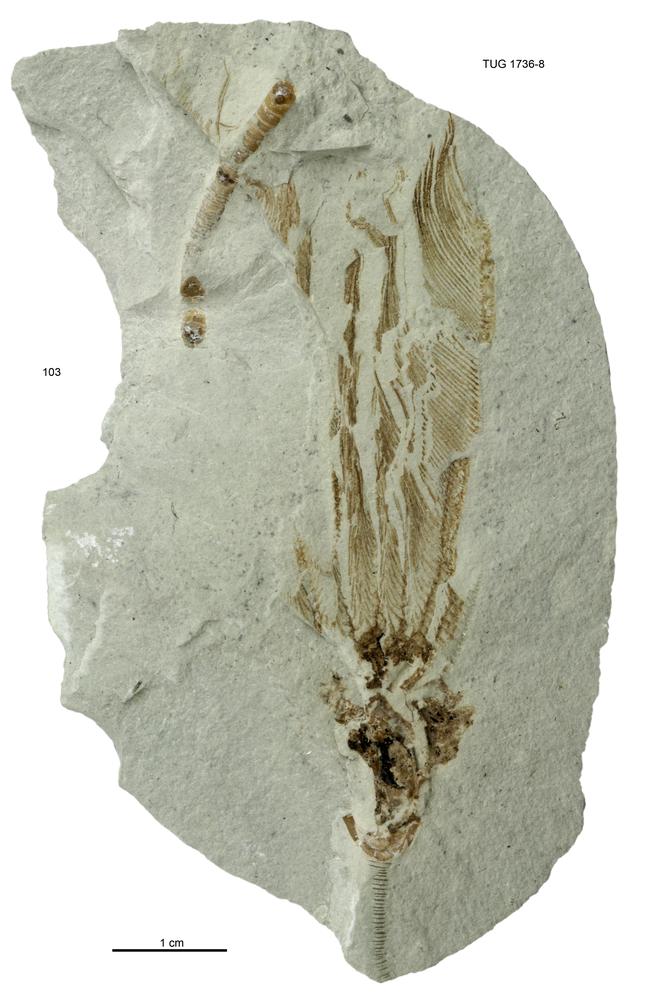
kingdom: Animalia
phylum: Echinodermata
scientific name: Echinodermata
